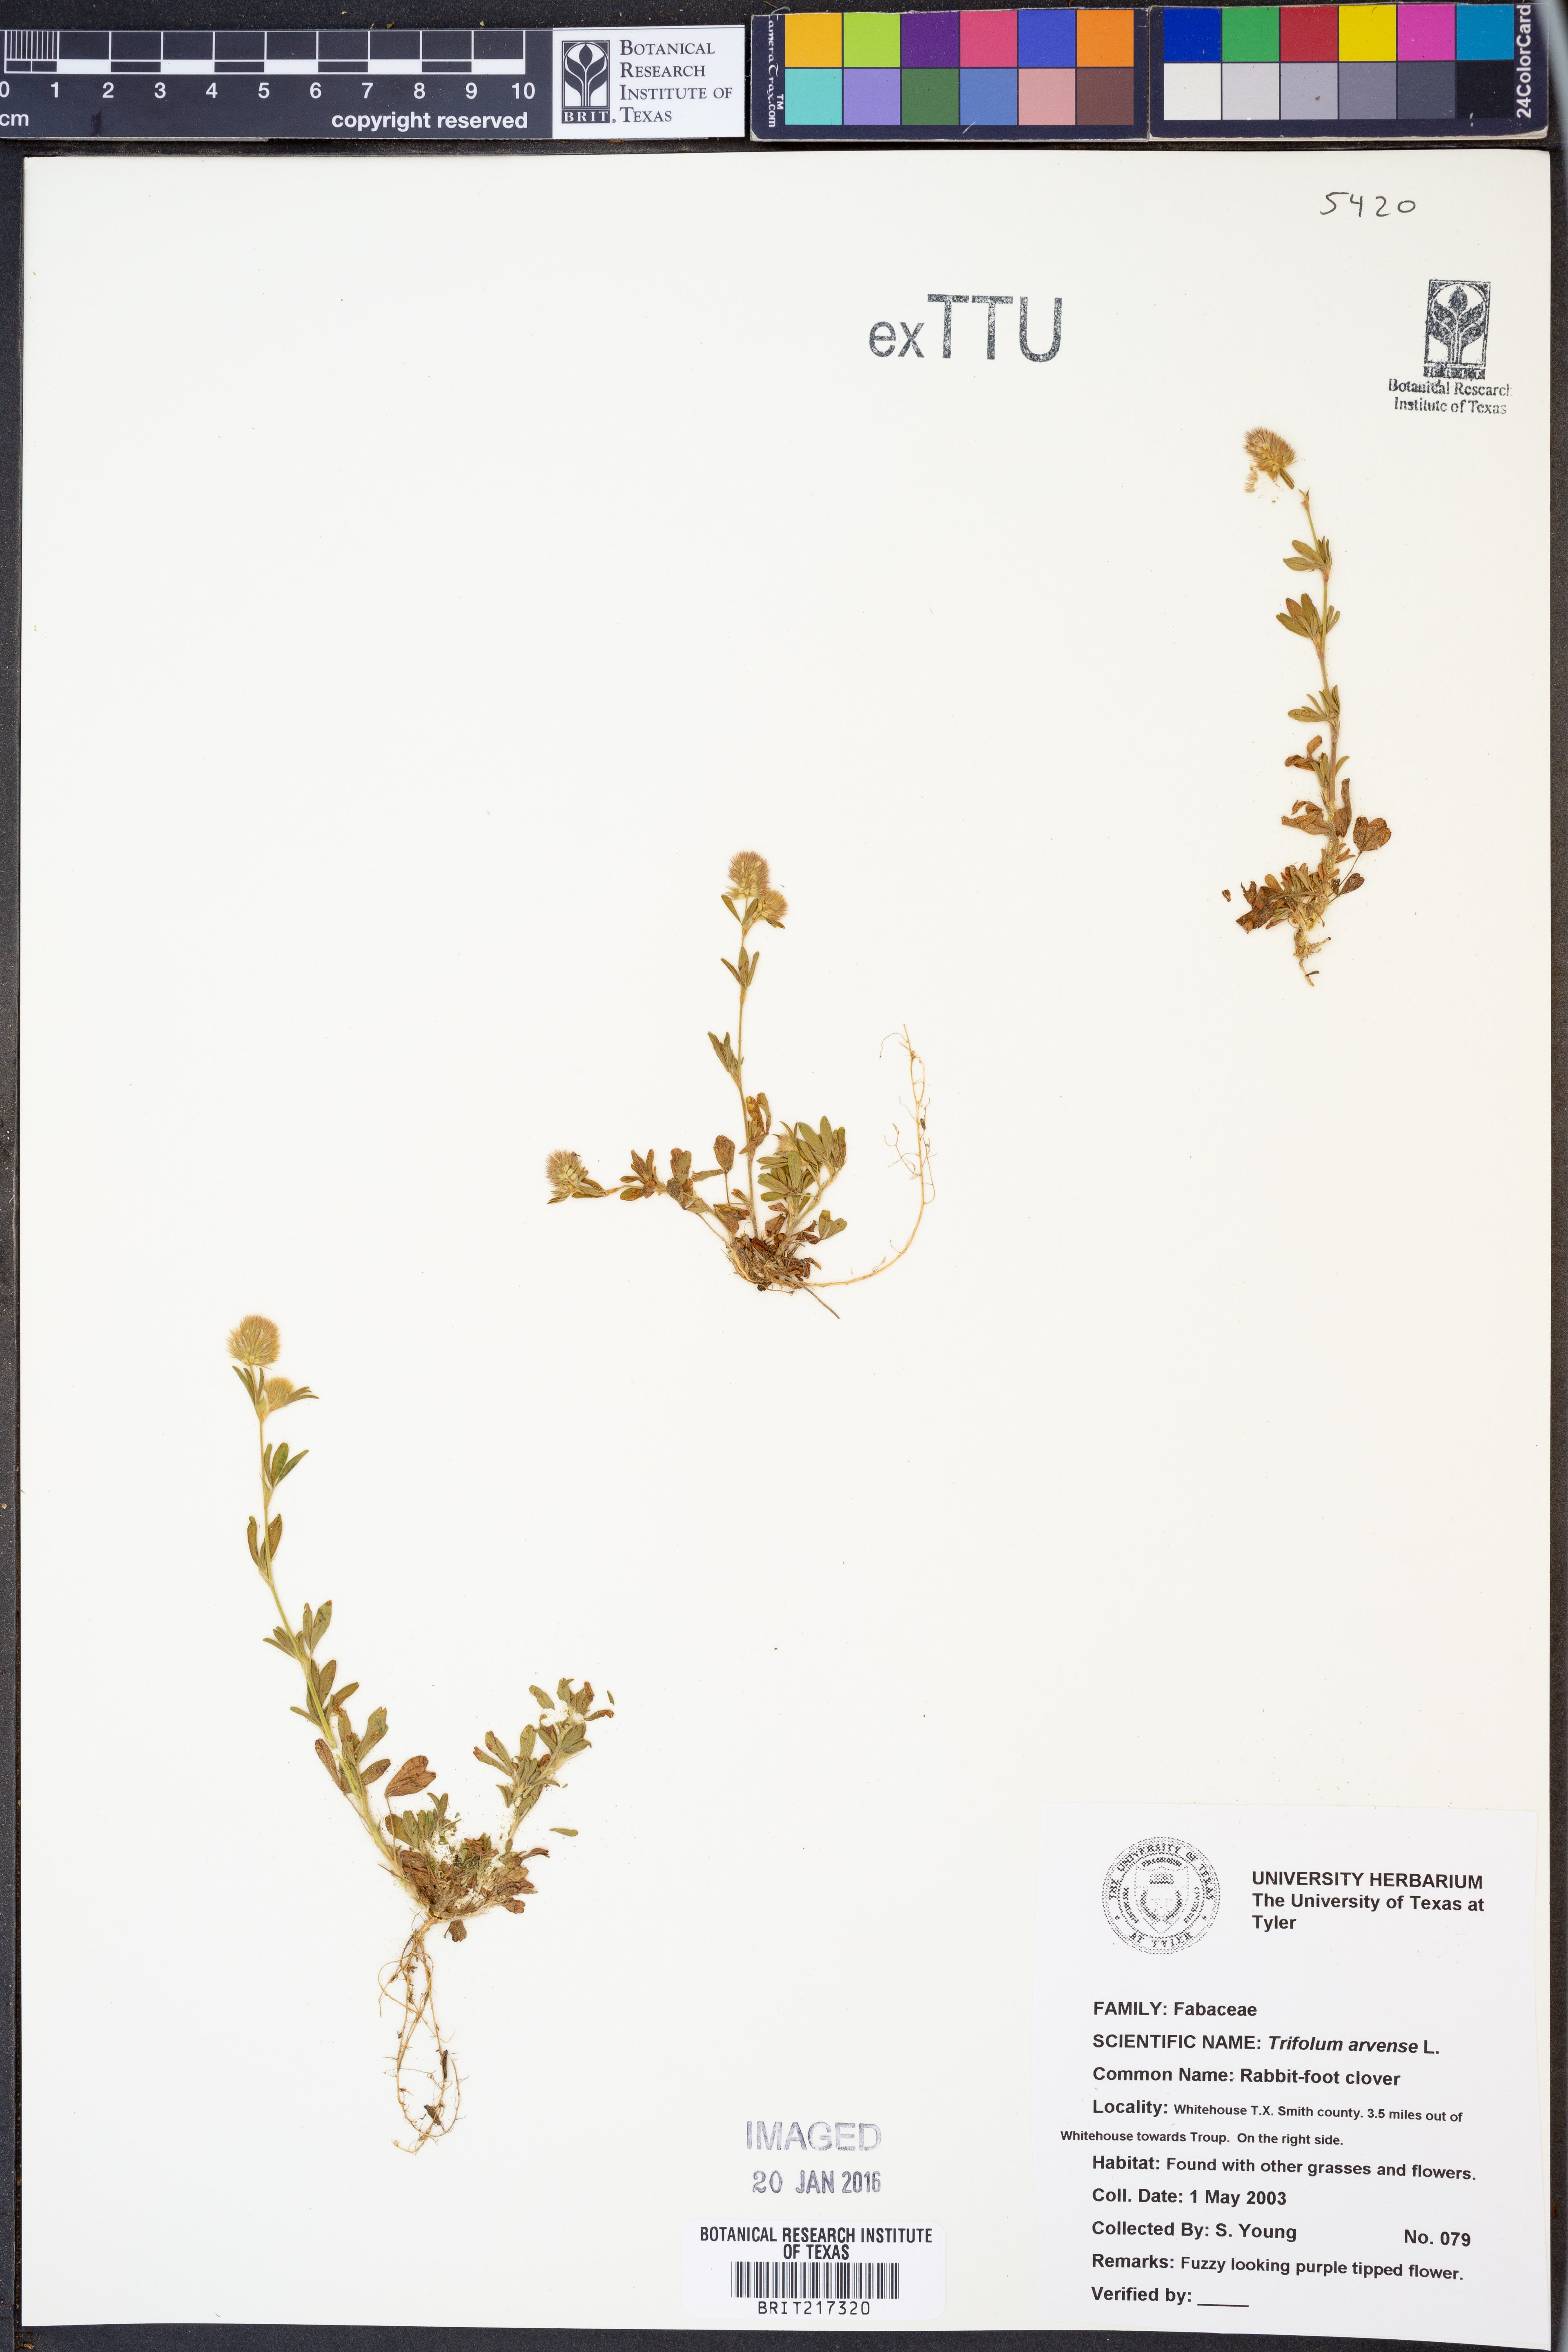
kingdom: Plantae
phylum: Tracheophyta
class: Magnoliopsida
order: Fabales
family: Fabaceae
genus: Trifolium
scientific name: Trifolium arvense
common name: Hare's-foot clover
